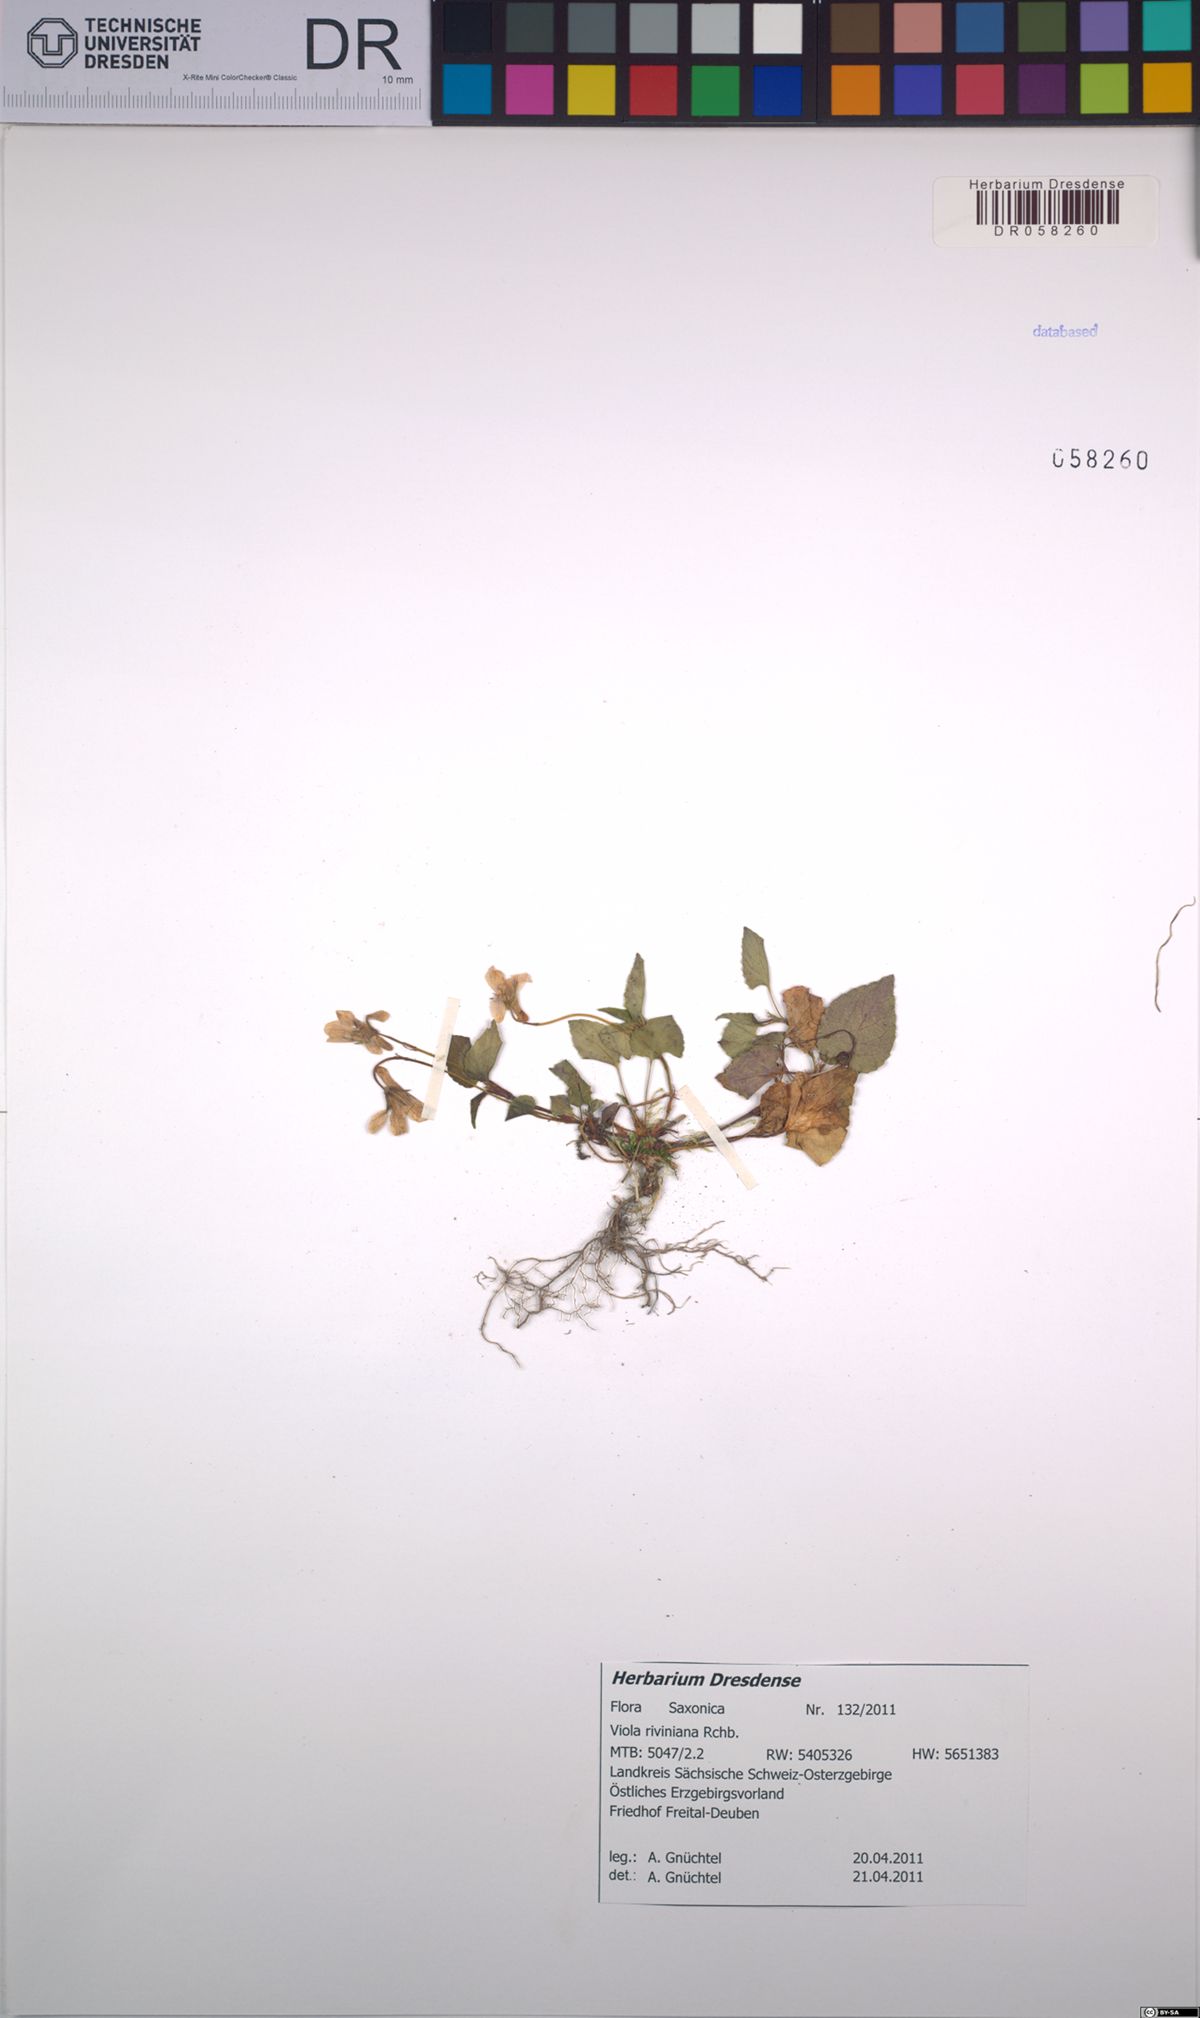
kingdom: Plantae
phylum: Tracheophyta
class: Magnoliopsida
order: Malpighiales
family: Violaceae
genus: Viola
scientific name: Viola riviniana
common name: Common dog-violet
